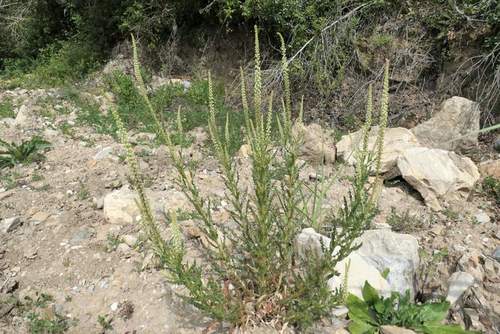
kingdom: Plantae
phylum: Tracheophyta
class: Magnoliopsida
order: Brassicales
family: Resedaceae
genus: Reseda
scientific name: Reseda luteola
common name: Weld
